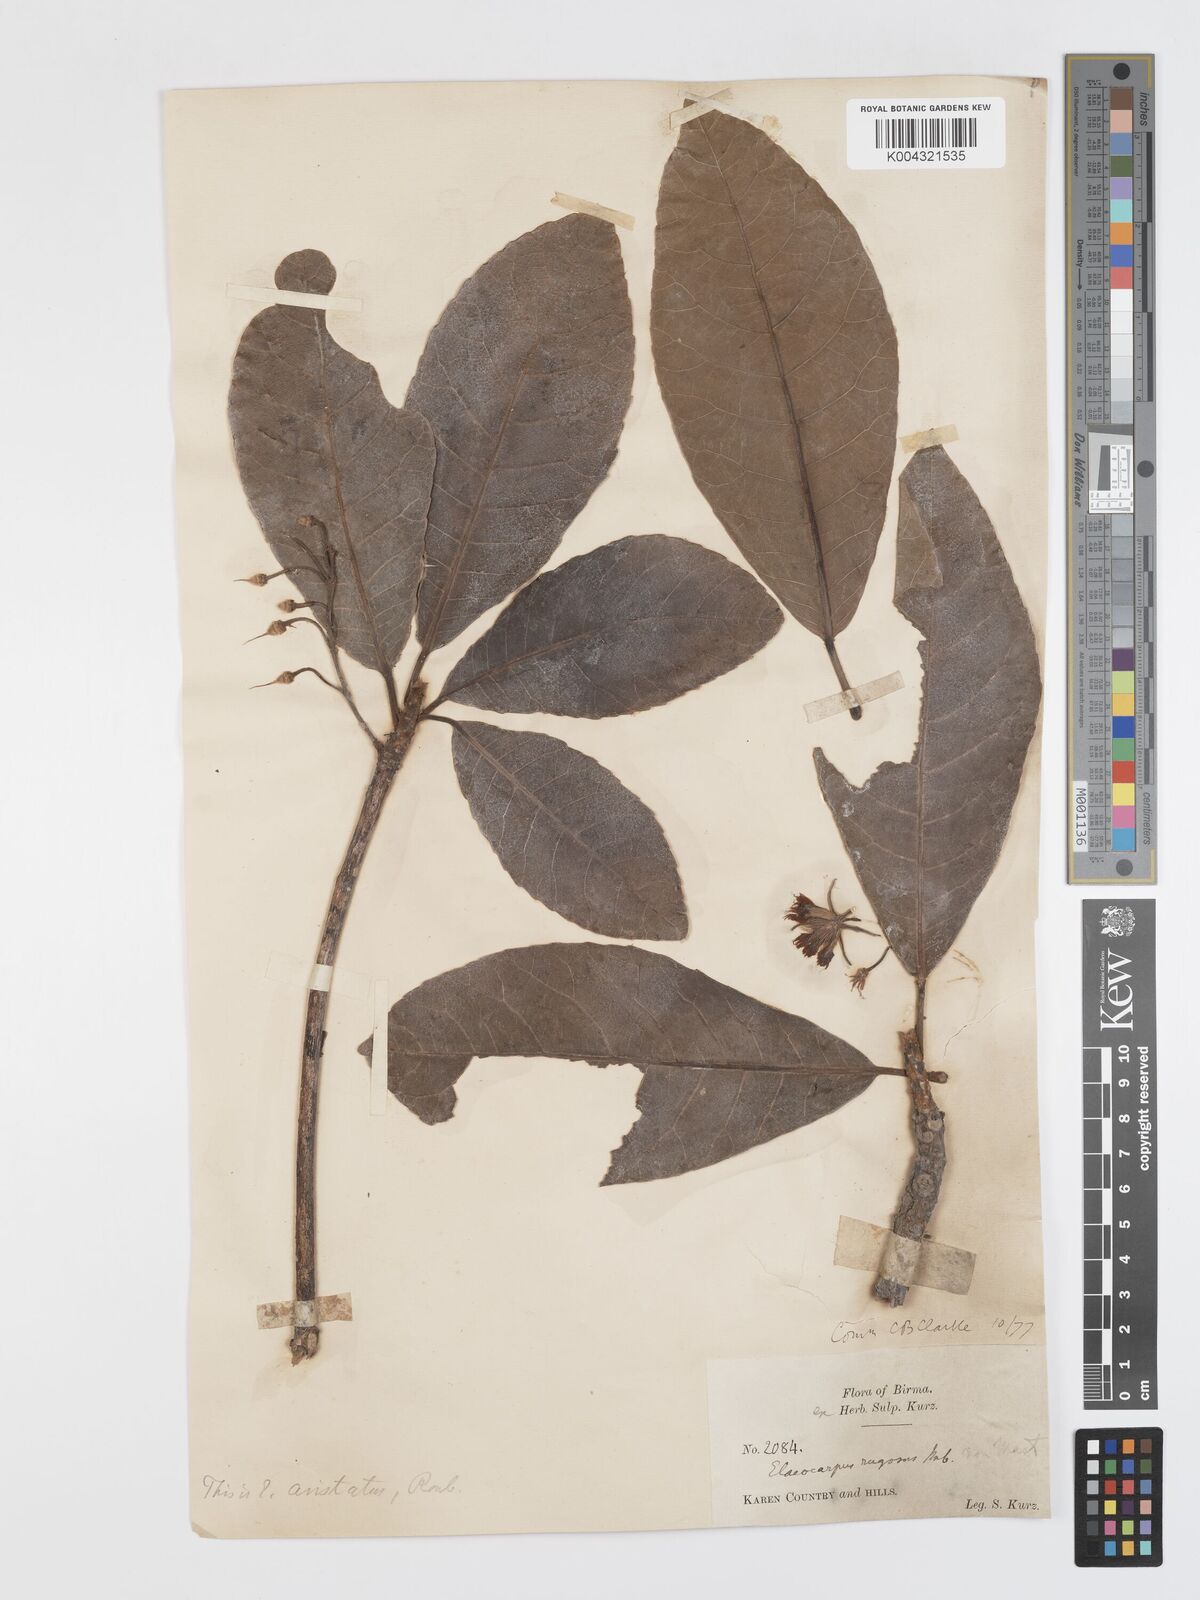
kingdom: Plantae
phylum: Tracheophyta
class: Magnoliopsida
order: Oxalidales
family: Elaeocarpaceae
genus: Elaeocarpus
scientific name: Elaeocarpus aristatus
